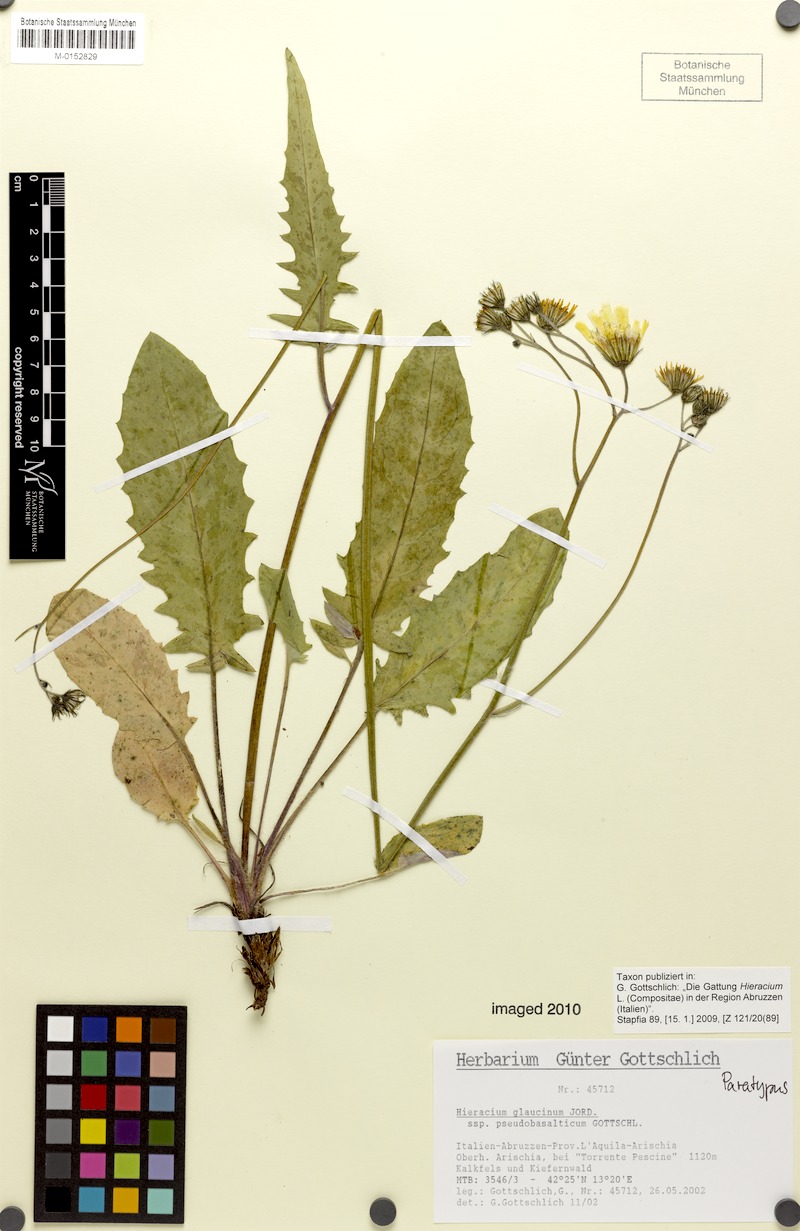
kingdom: Plantae
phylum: Tracheophyta
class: Magnoliopsida
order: Asterales
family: Asteraceae
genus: Hieracium
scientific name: Hieracium glaucinum
